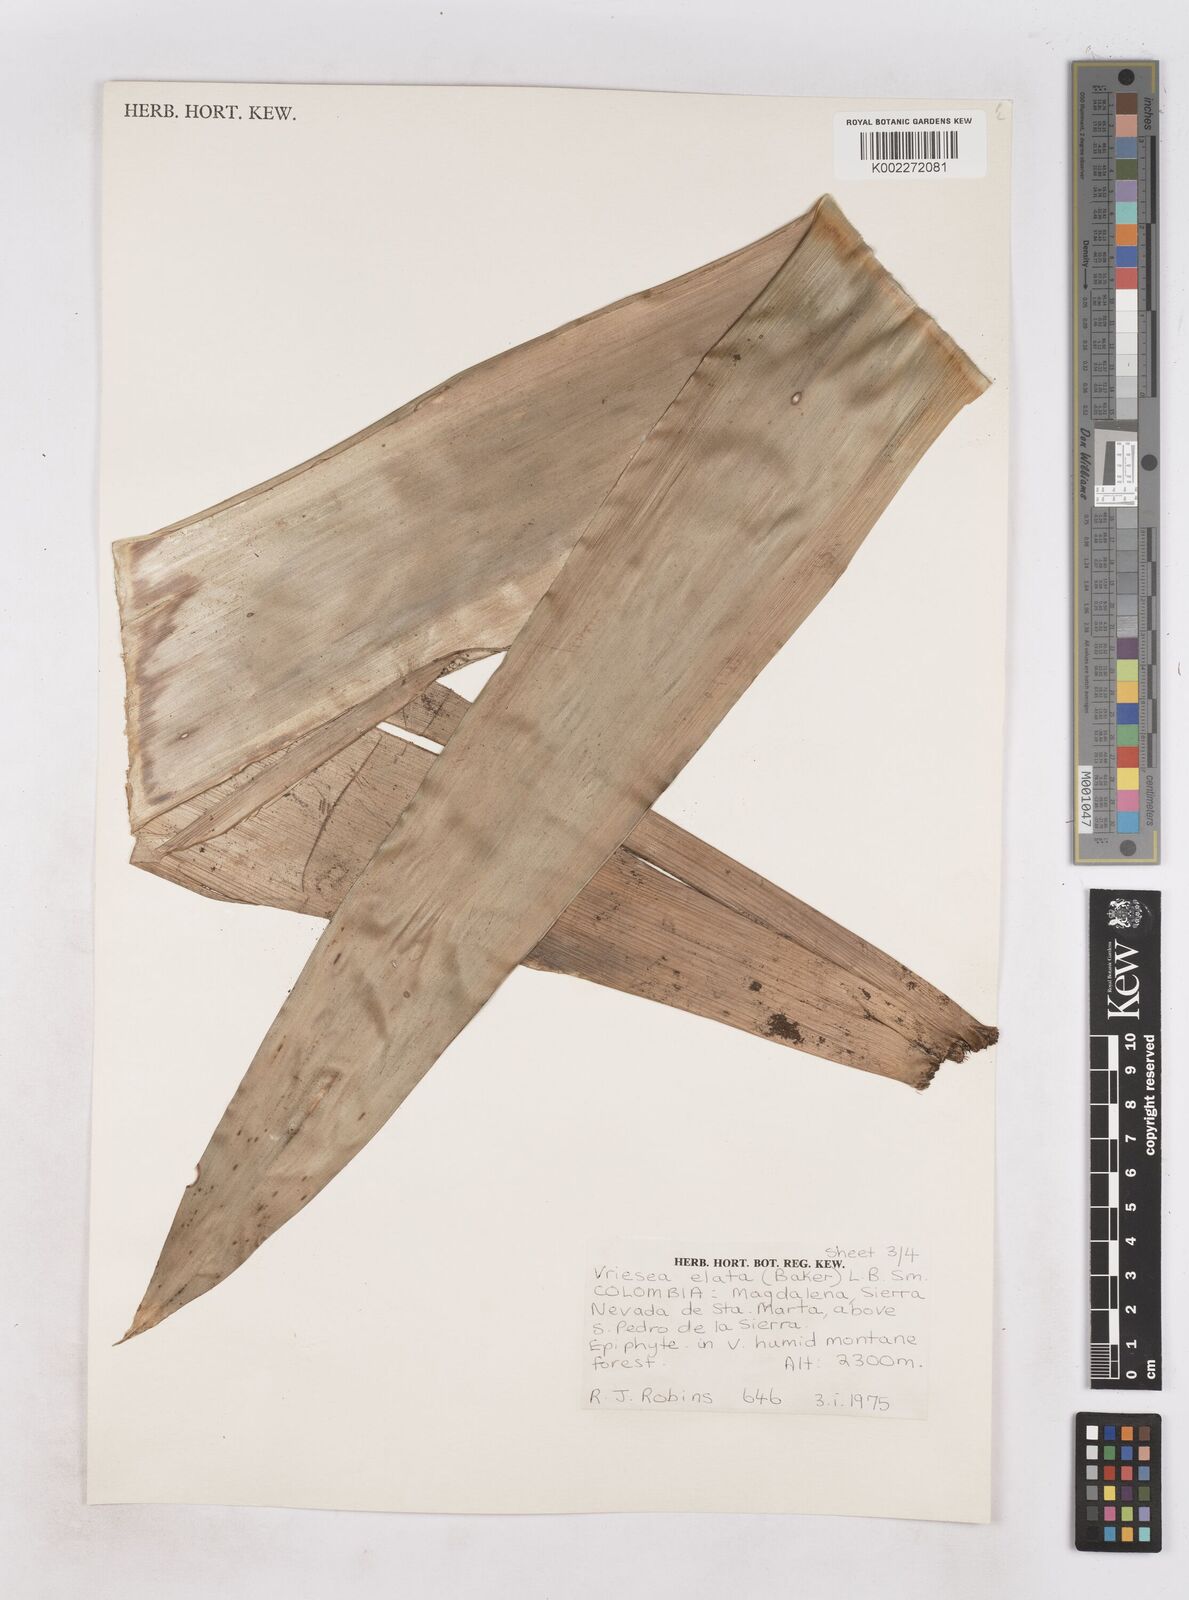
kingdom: Plantae
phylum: Tracheophyta
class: Liliopsida
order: Poales
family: Bromeliaceae
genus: Vriesea
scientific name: Vriesea elata
